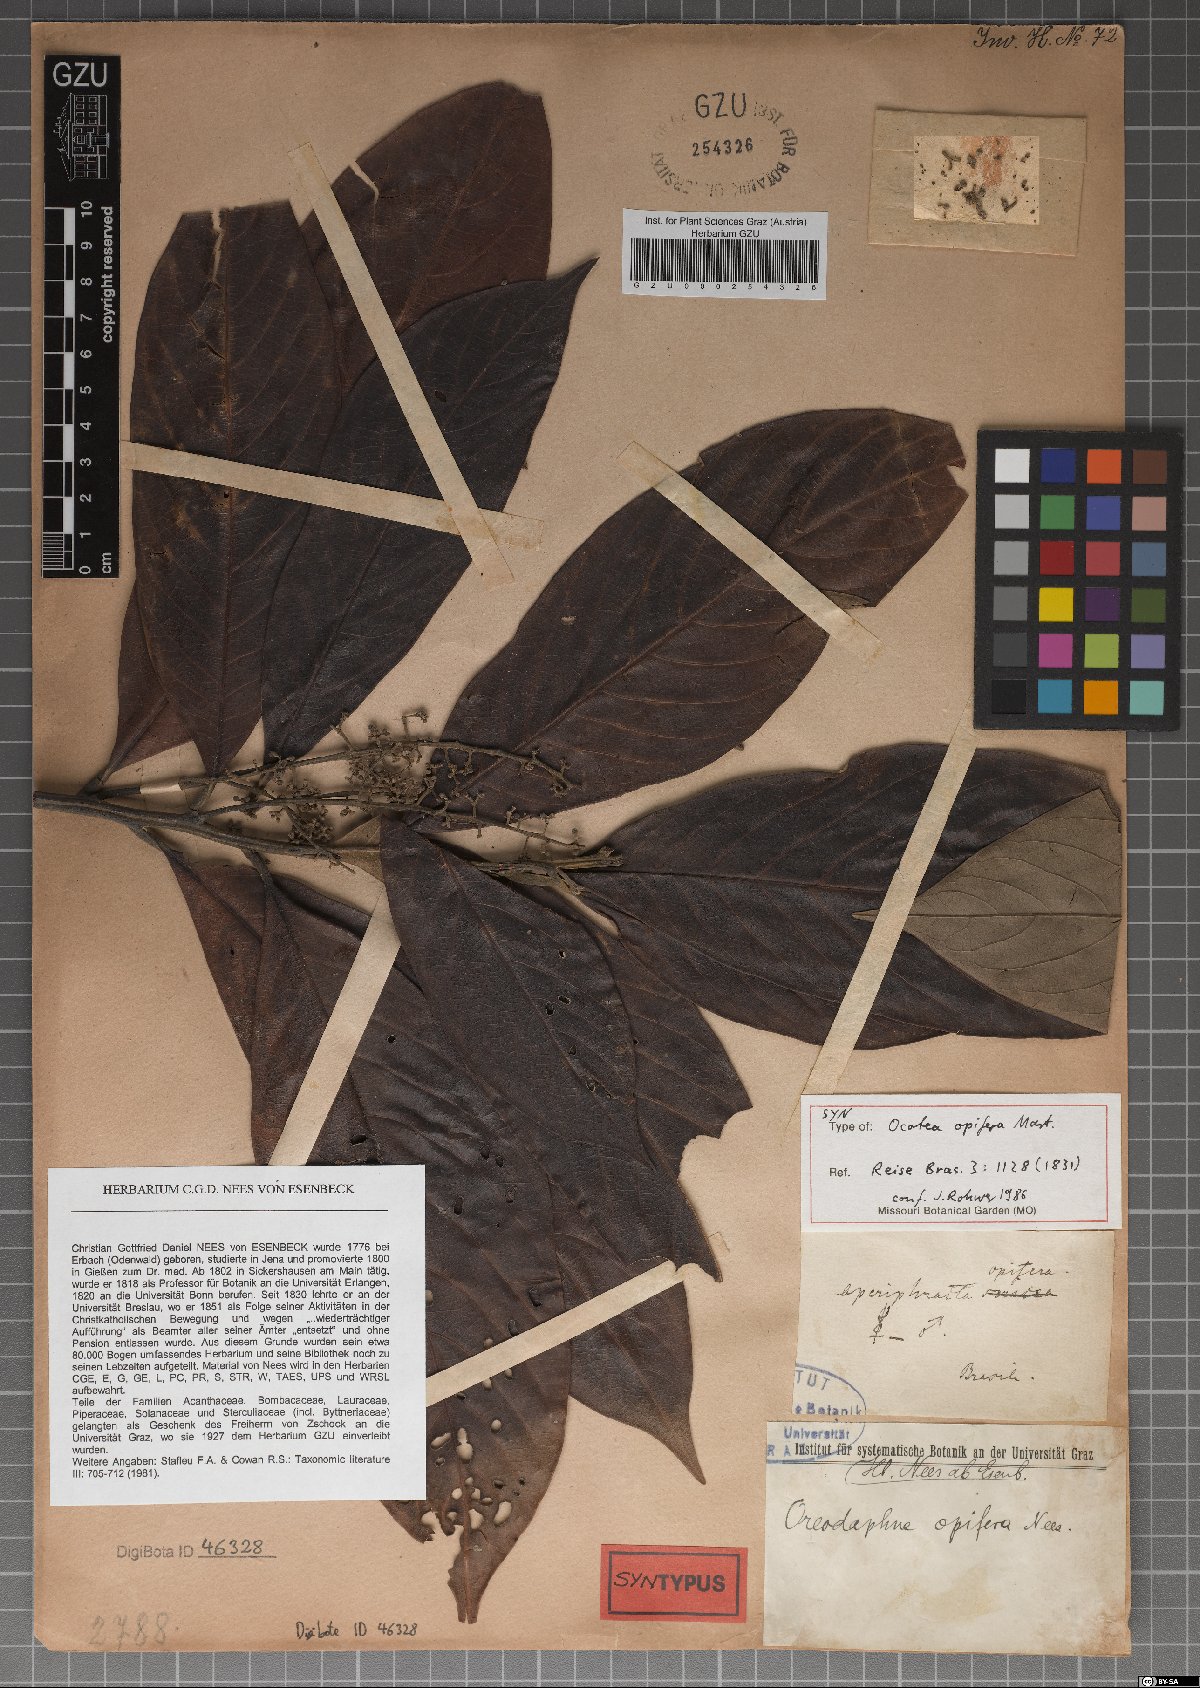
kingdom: Plantae
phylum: Tracheophyta
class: Magnoliopsida
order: Laurales
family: Lauraceae
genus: Mespilodaphne
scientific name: Mespilodaphne opifera
